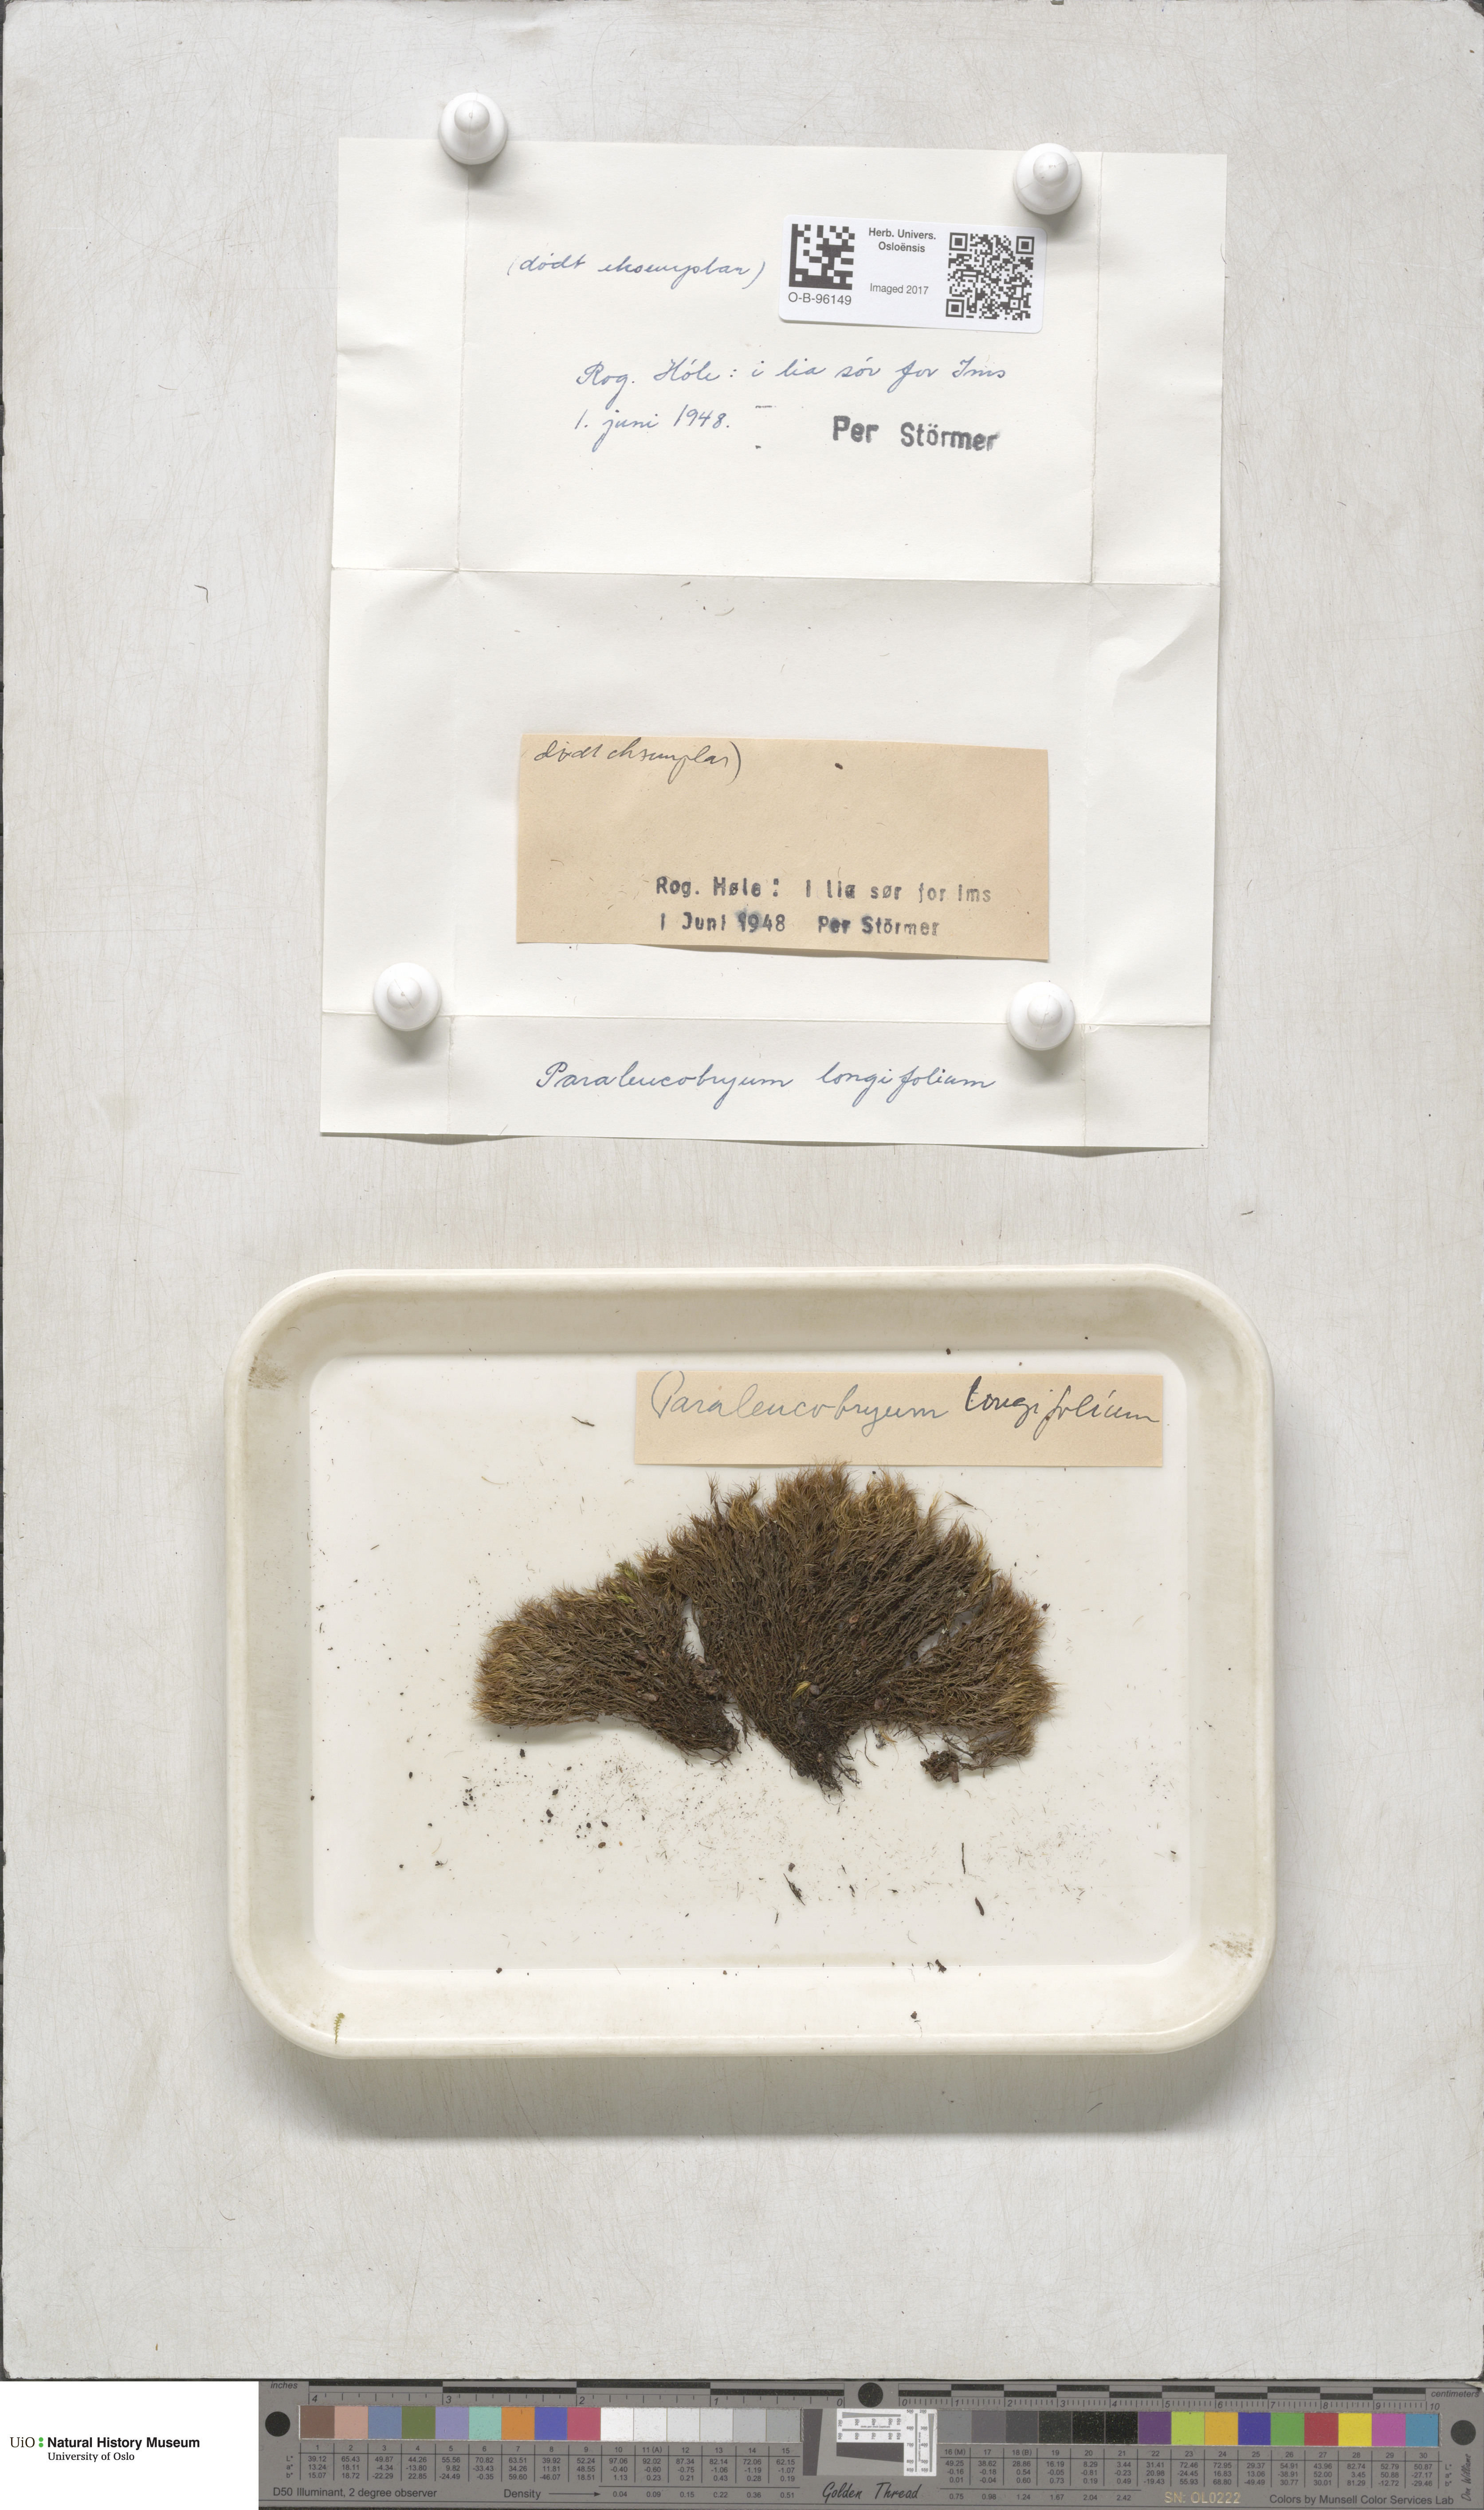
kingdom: Plantae
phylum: Bryophyta
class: Bryopsida
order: Dicranales
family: Dicranaceae
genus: Paraleucobryum
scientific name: Paraleucobryum longifolium
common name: Long-leaved fork moss
